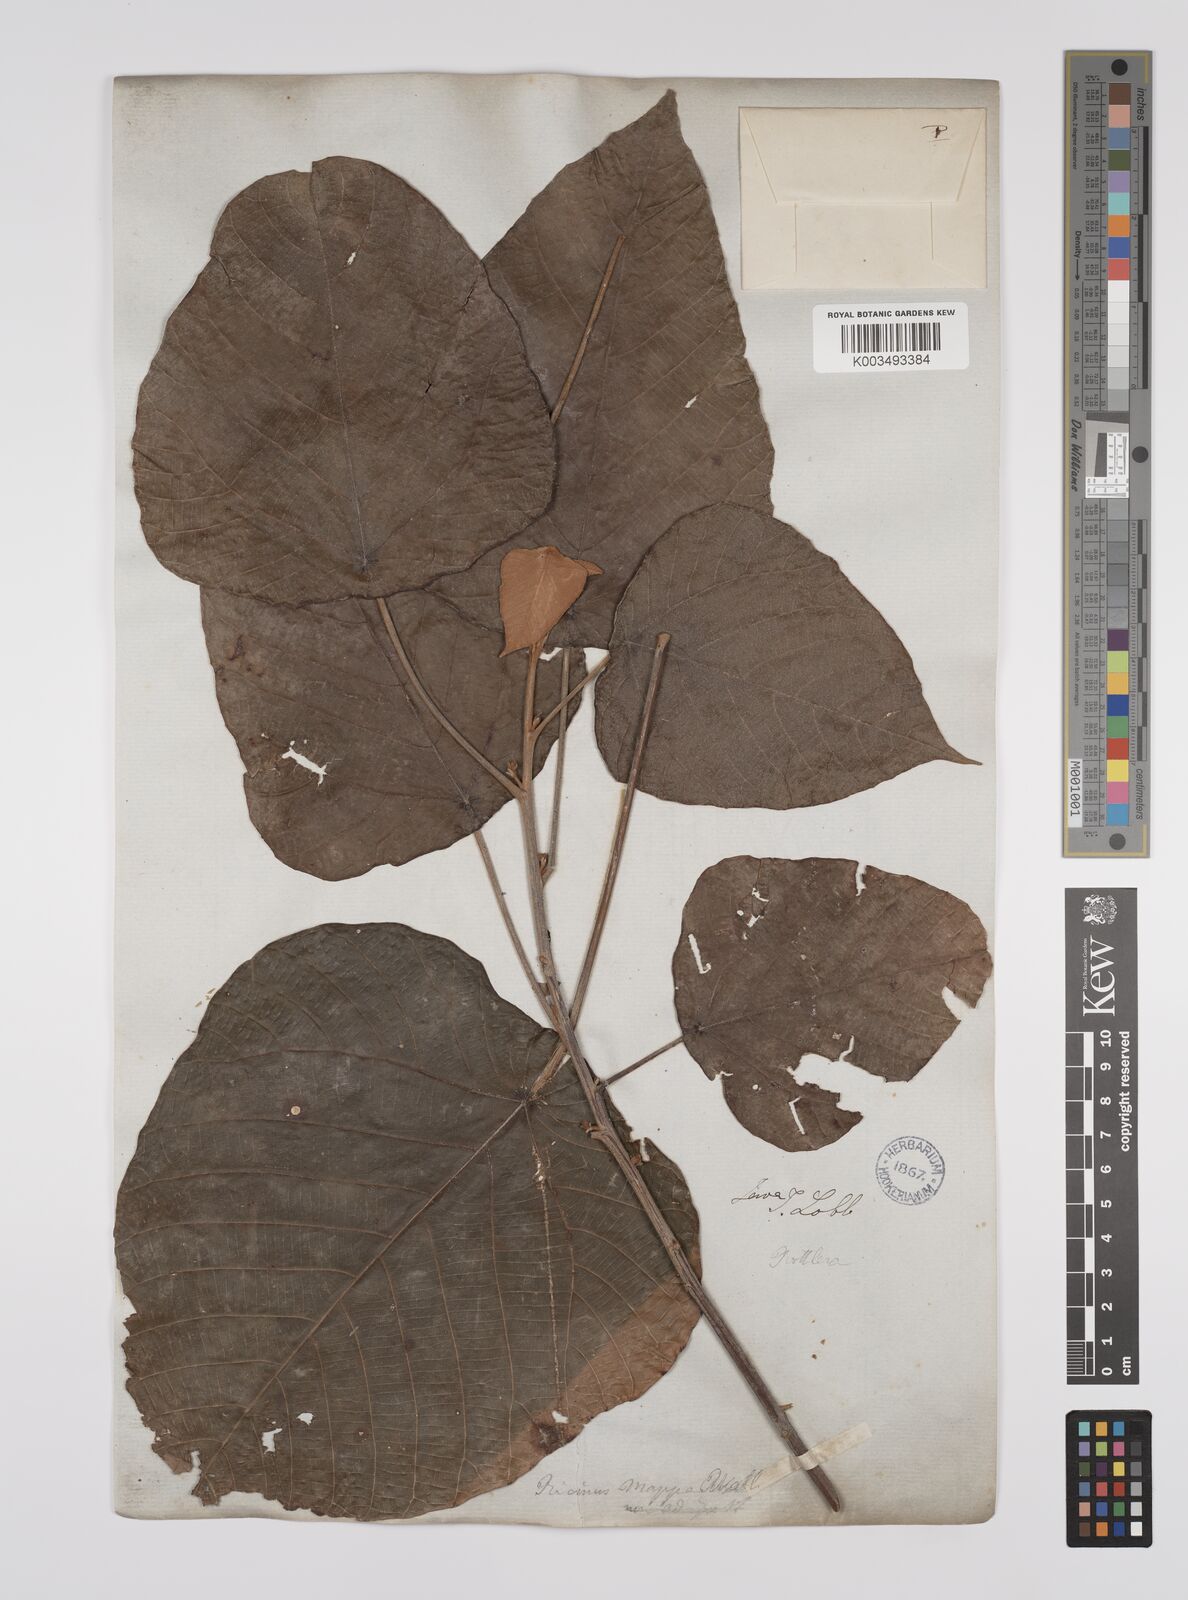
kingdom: Plantae
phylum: Tracheophyta
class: Magnoliopsida
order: Malpighiales
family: Euphorbiaceae
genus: Macaranga
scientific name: Macaranga denticulata
